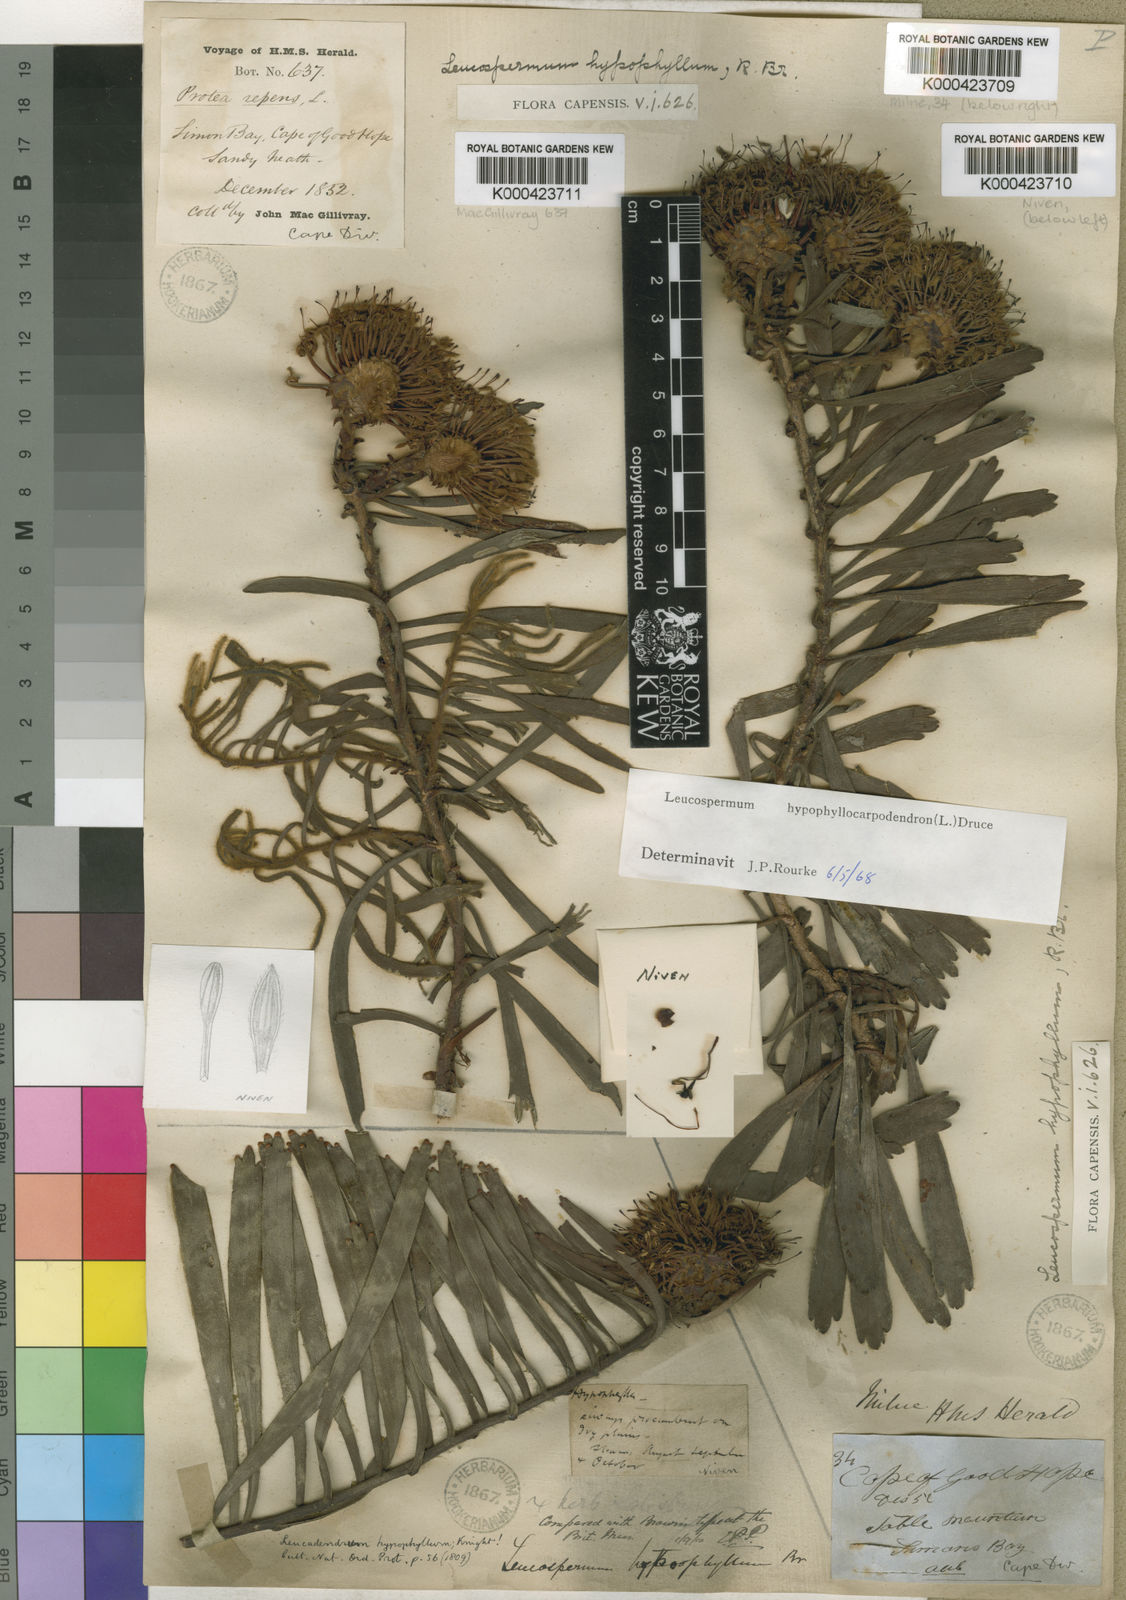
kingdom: Plantae
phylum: Tracheophyta
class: Magnoliopsida
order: Proteales
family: Proteaceae
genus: Leucospermum
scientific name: Leucospermum hypophyllocarpodendron
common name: Snakestem pincushion
